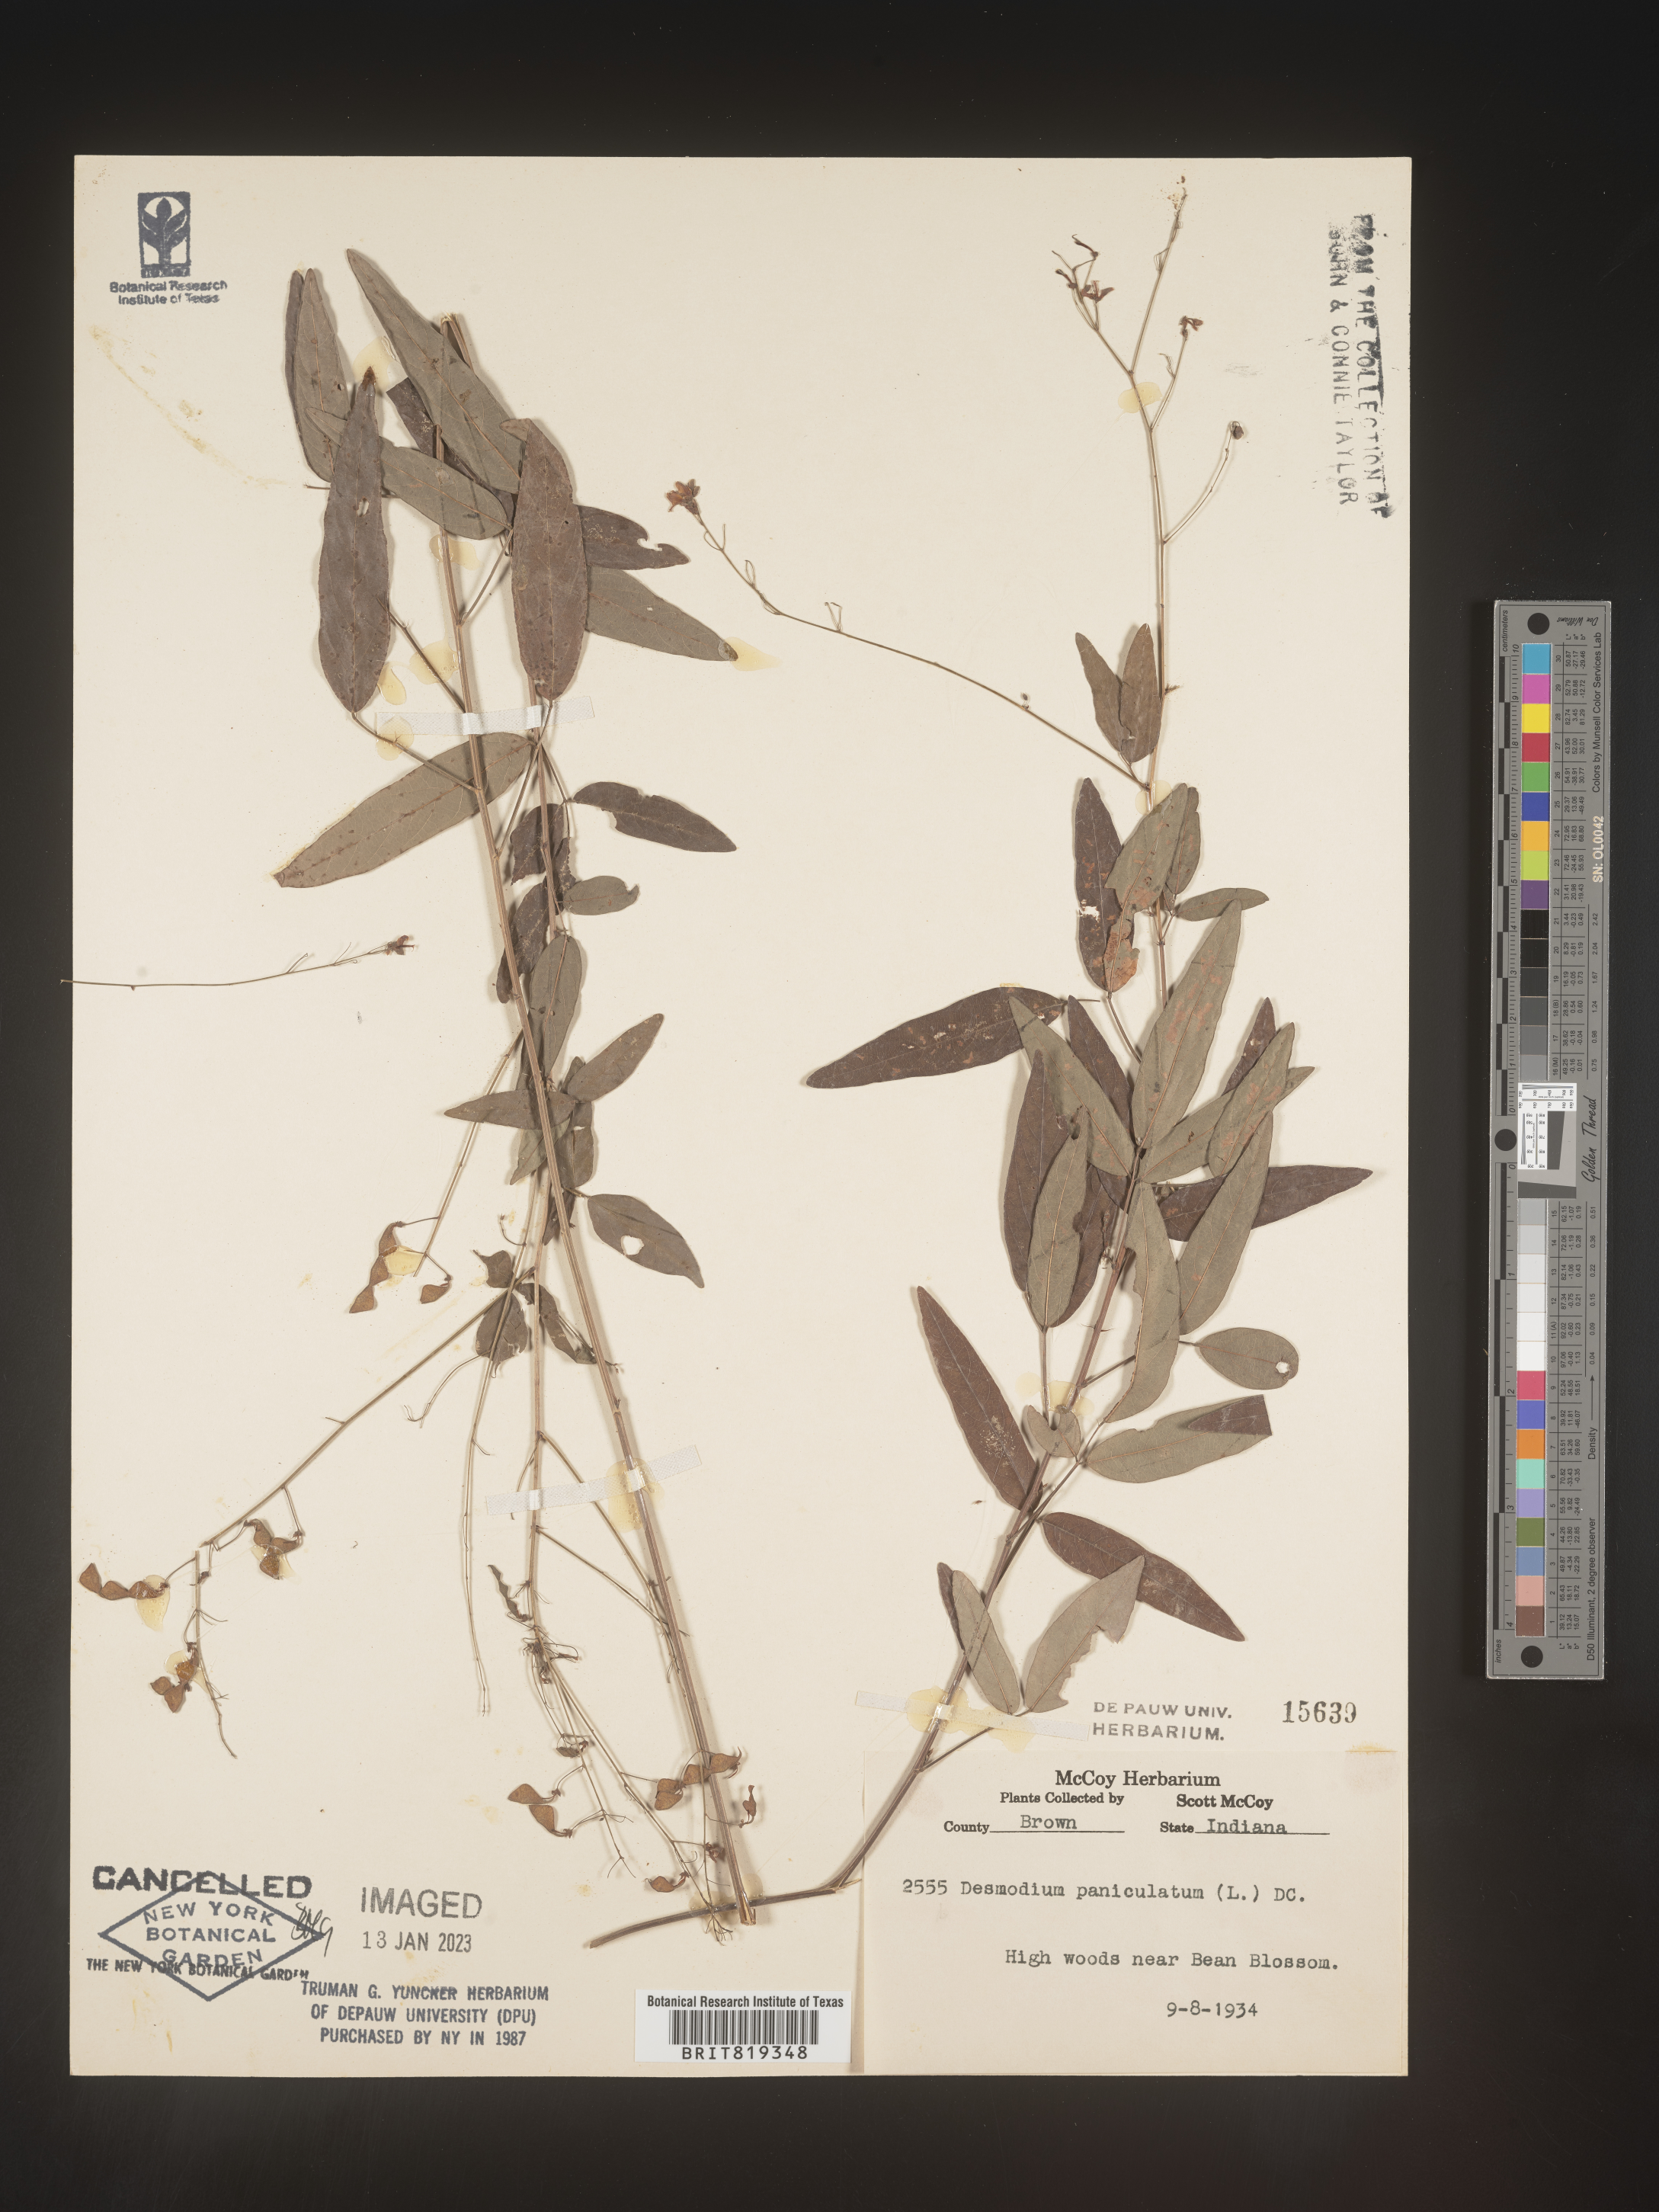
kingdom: Plantae
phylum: Tracheophyta
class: Magnoliopsida
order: Fabales
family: Fabaceae
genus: Desmodium
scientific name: Desmodium paniculatum
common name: Panicled tick-clover
